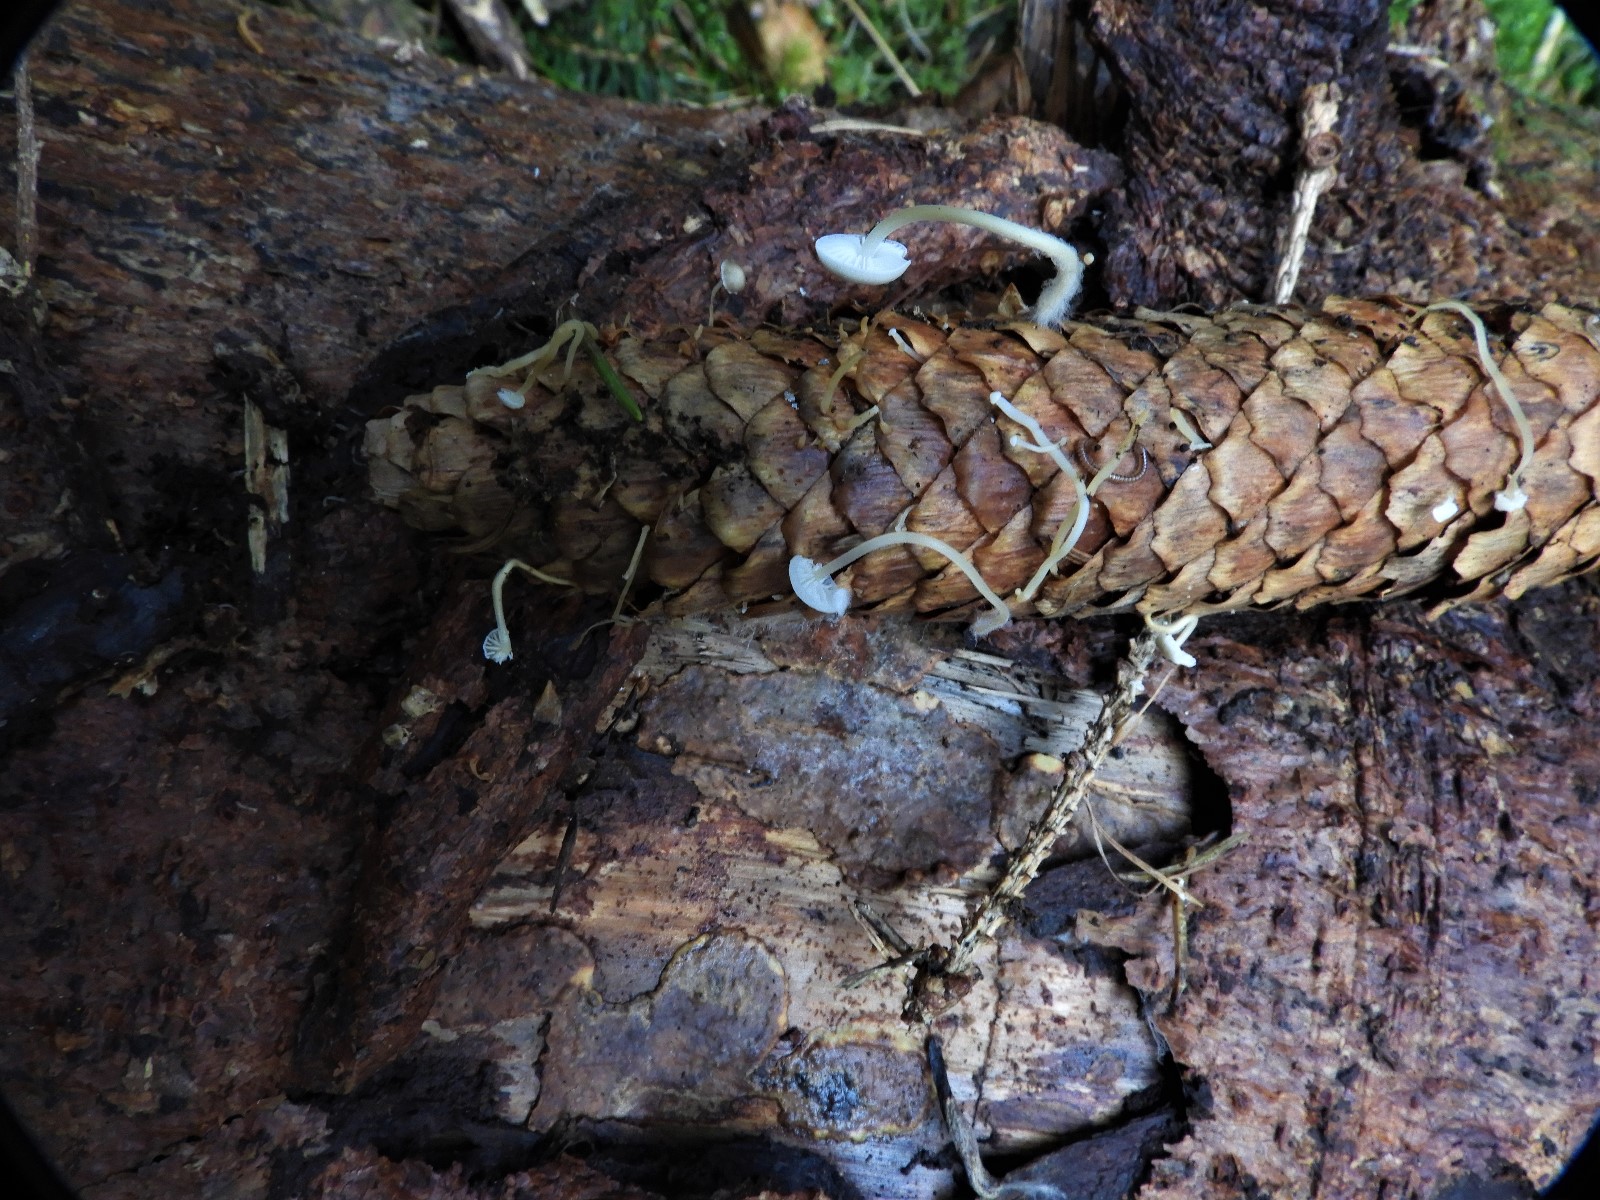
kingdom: Fungi
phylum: Basidiomycota
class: Agaricomycetes
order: Agaricales
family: Physalacriaceae
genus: Strobilurus
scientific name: Strobilurus esculentus
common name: gran-koglehat
